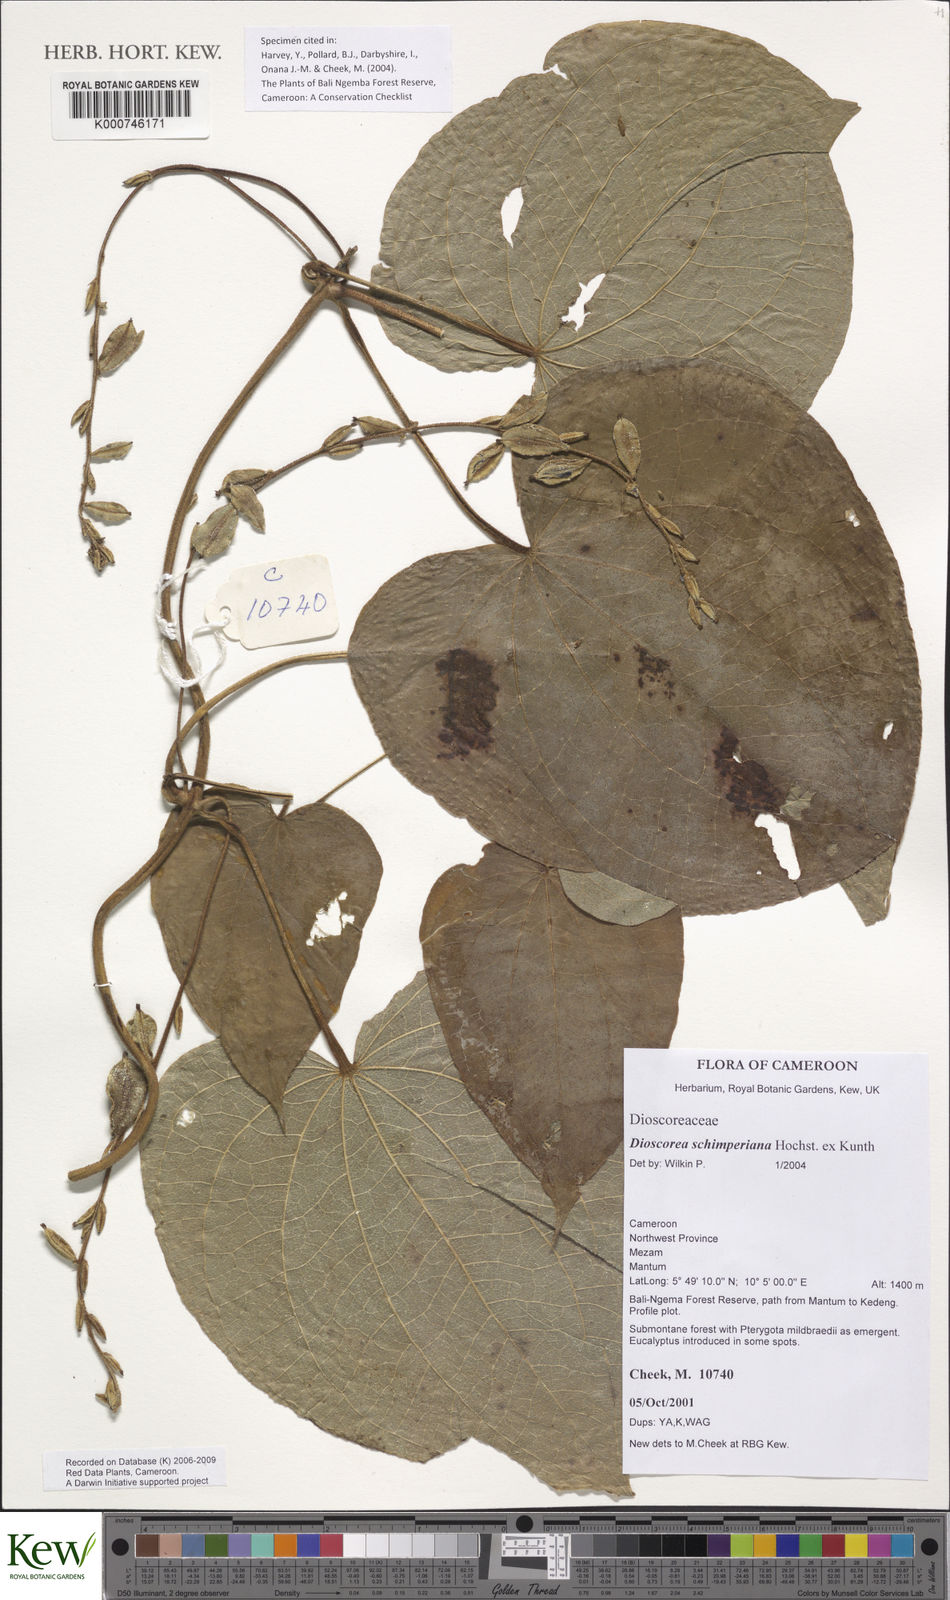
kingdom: Plantae
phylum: Tracheophyta
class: Liliopsida
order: Dioscoreales
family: Dioscoreaceae
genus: Dioscorea
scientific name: Dioscorea schimperiana
